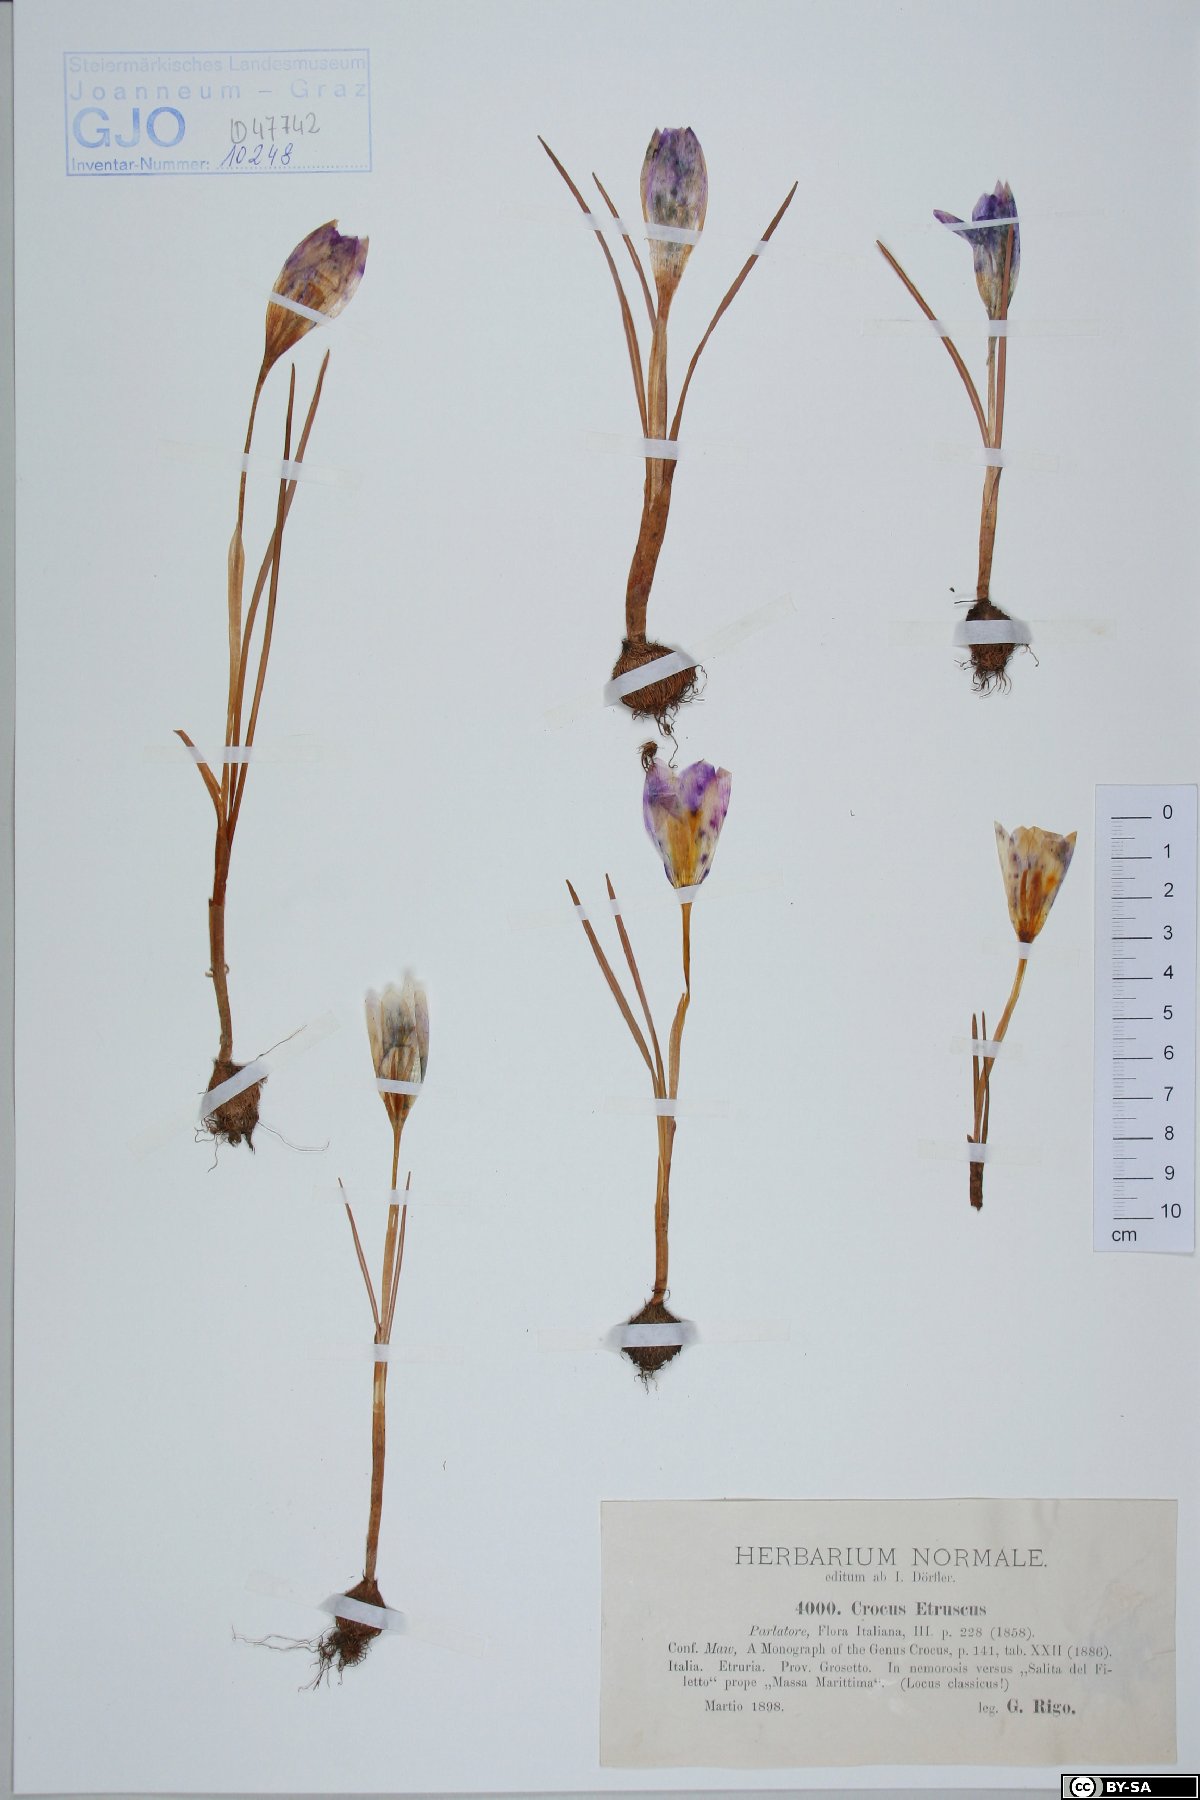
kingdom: Plantae
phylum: Tracheophyta
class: Liliopsida
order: Asparagales
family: Iridaceae
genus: Crocus
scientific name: Crocus etruscus
